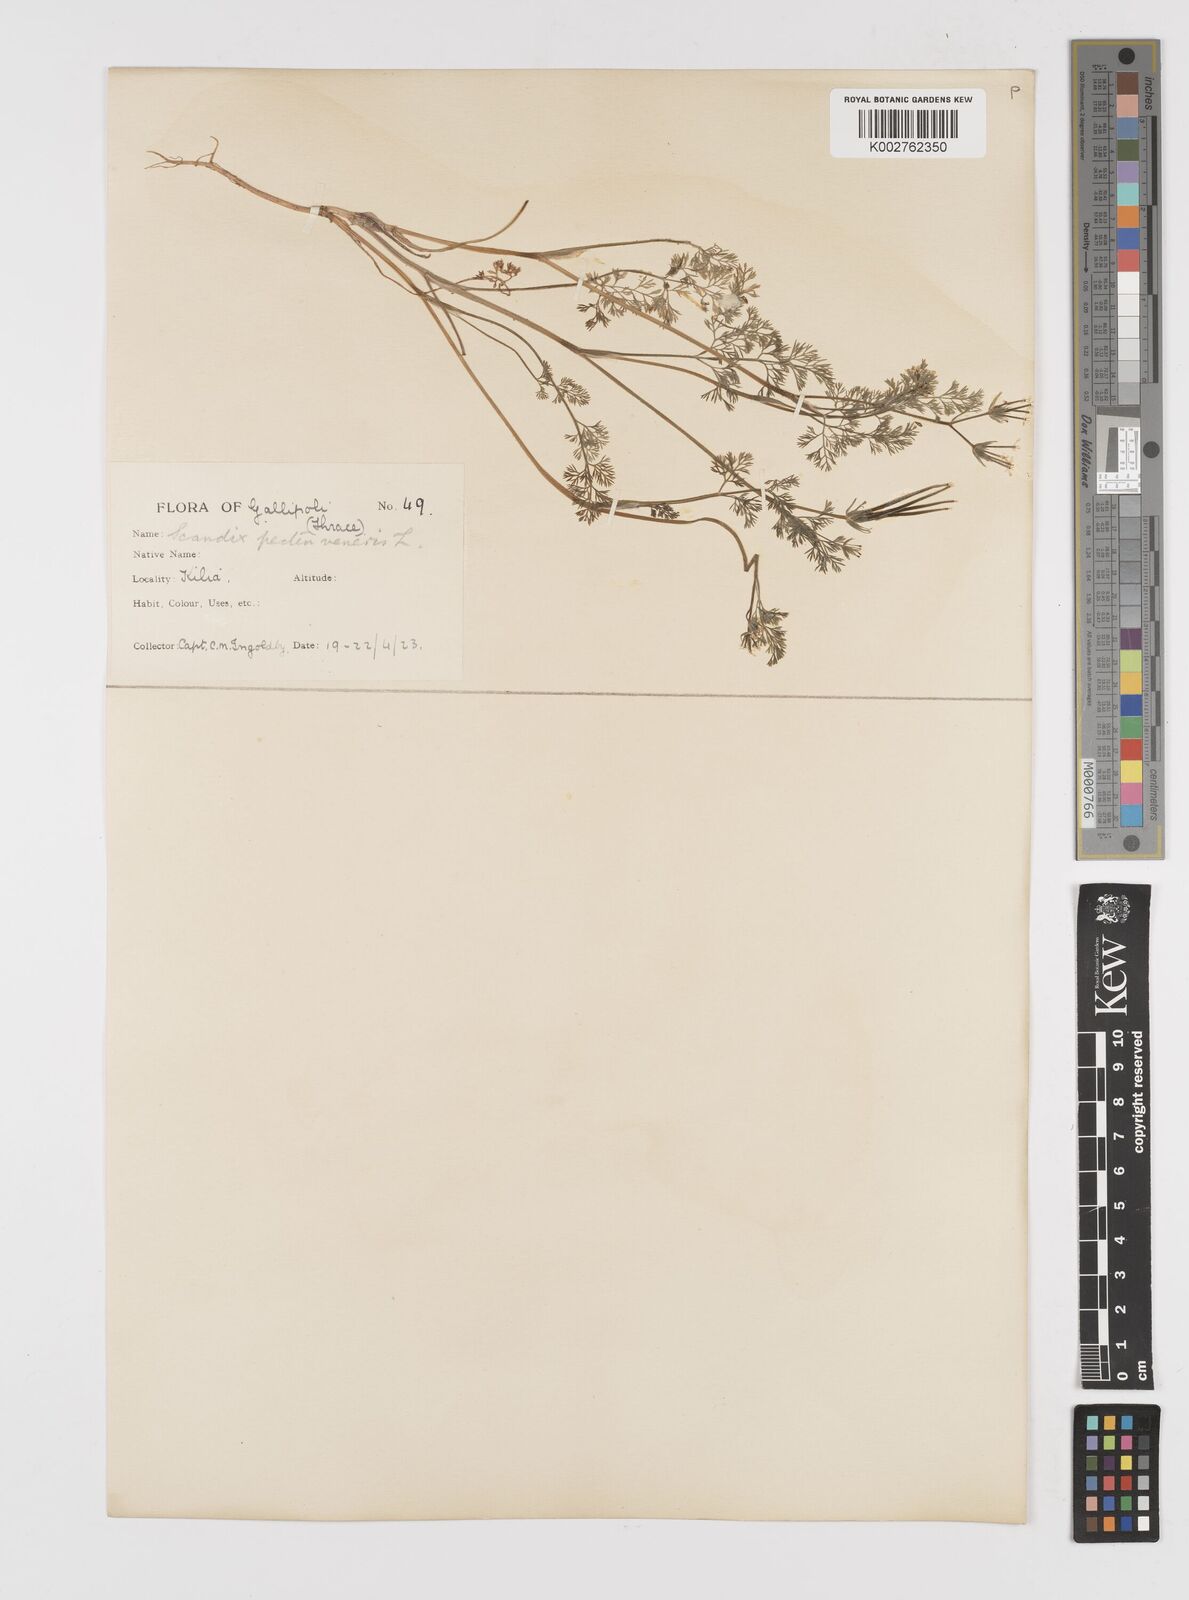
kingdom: Plantae
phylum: Tracheophyta
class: Magnoliopsida
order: Apiales
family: Apiaceae
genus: Scandix
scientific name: Scandix pecten-veneris
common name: Shepherd's-needle
